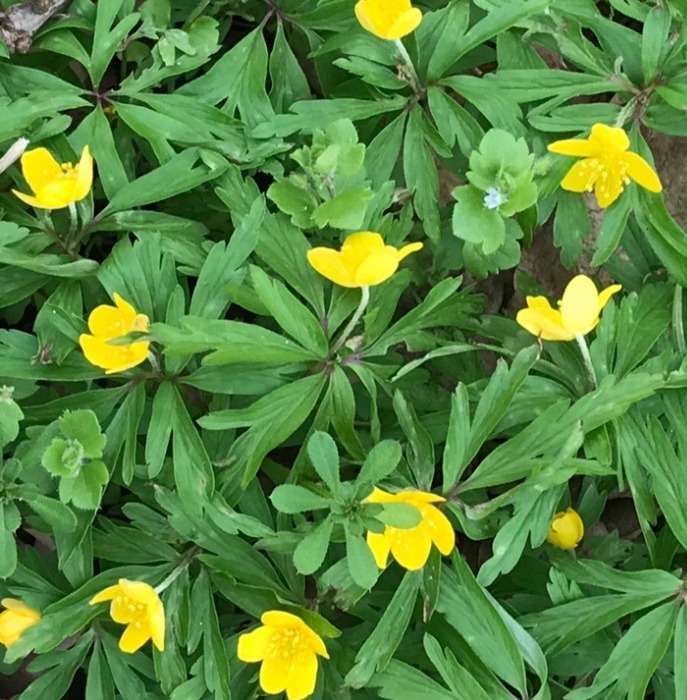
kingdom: Plantae
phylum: Tracheophyta
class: Magnoliopsida
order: Ranunculales
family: Ranunculaceae
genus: Anemone
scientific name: Anemone ranunculoides
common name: Gul anemone
